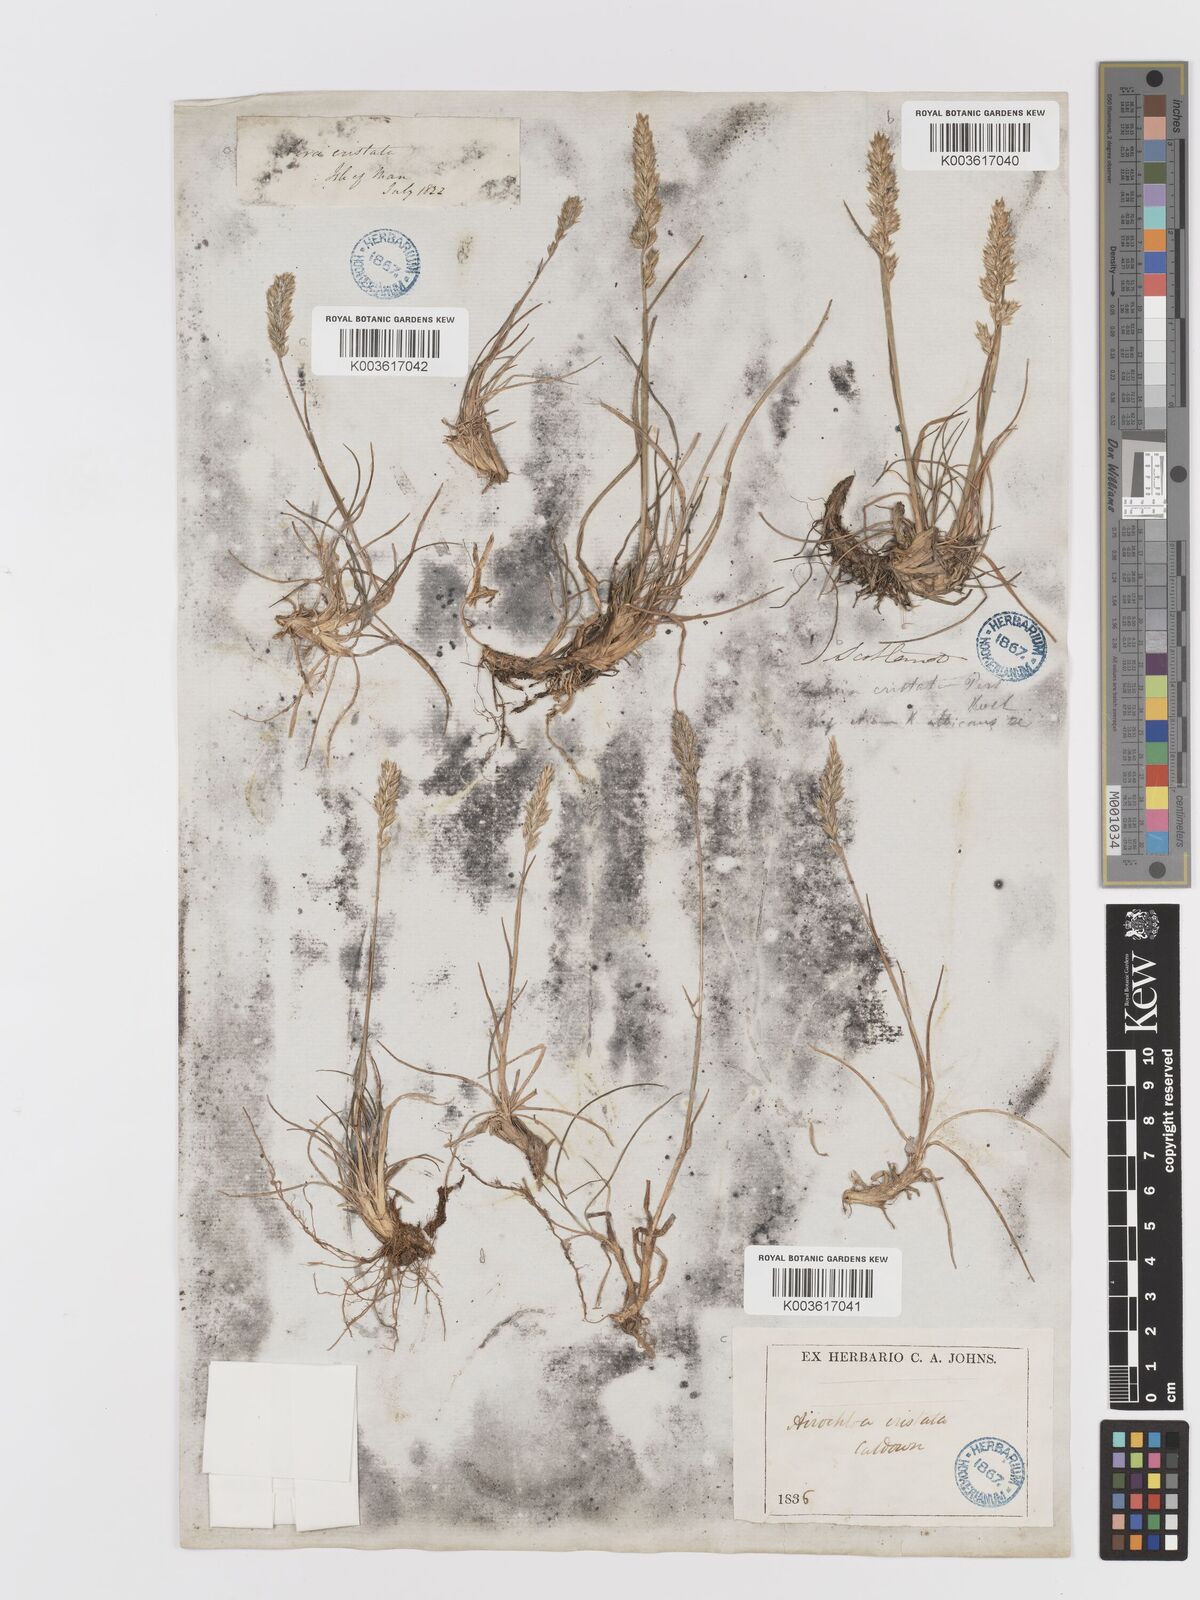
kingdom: Plantae
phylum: Tracheophyta
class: Liliopsida
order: Poales
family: Poaceae
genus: Koeleria
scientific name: Koeleria macrantha
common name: Crested hair-grass
